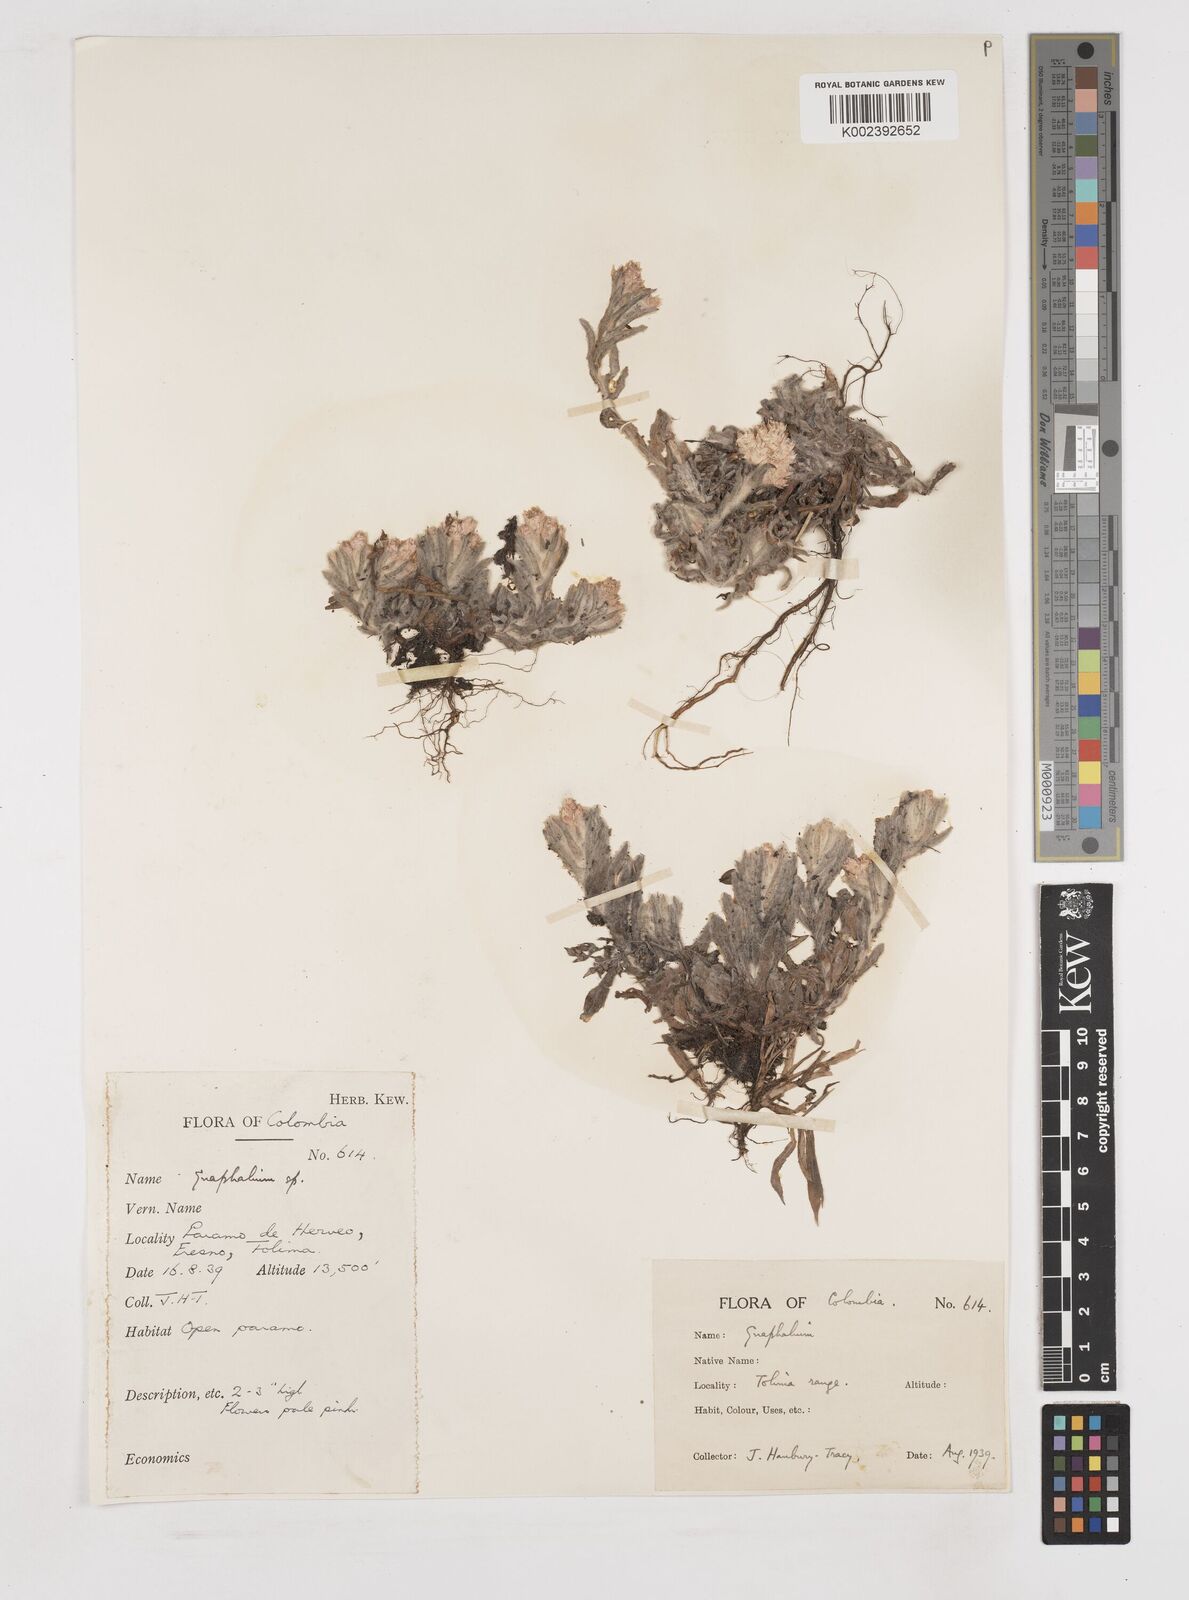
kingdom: Plantae
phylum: Tracheophyta
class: Magnoliopsida
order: Asterales
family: Asteraceae
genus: Gnaphalium
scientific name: Gnaphalium
